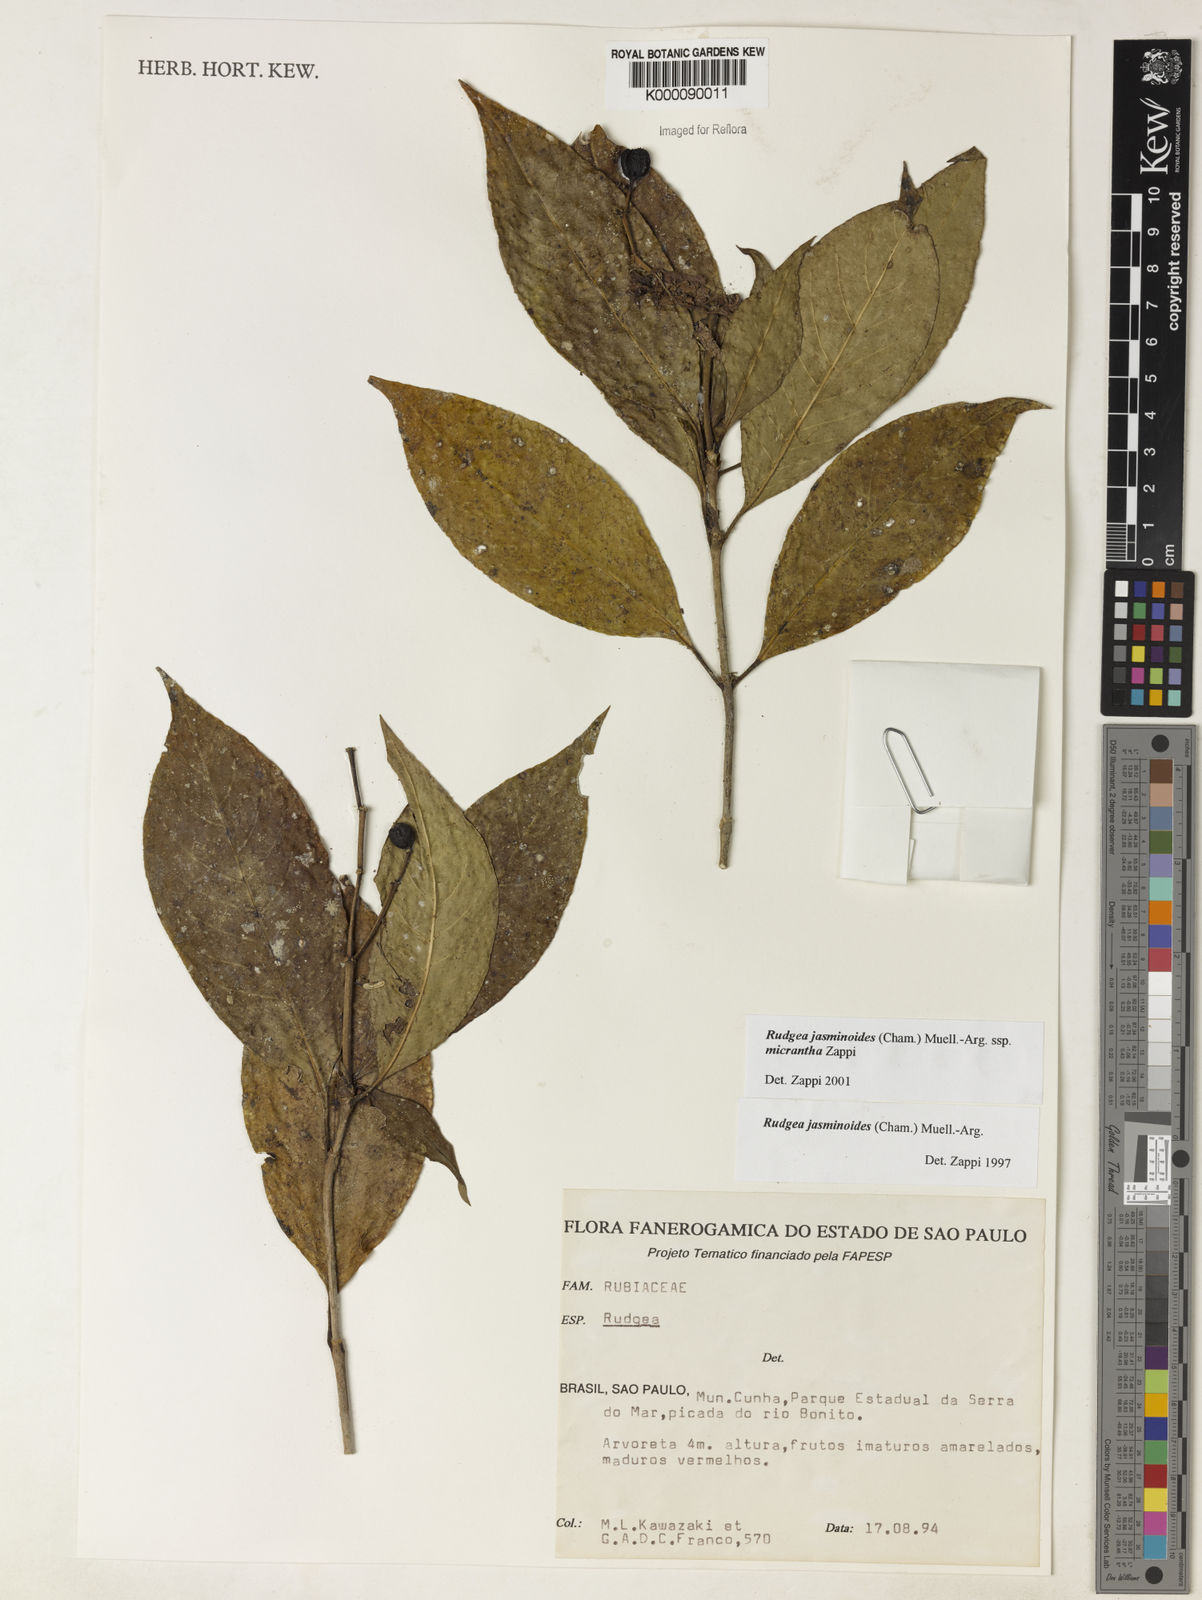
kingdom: Plantae
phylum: Tracheophyta
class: Magnoliopsida
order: Gentianales
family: Rubiaceae
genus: Rudgea
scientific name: Rudgea jasminoides
